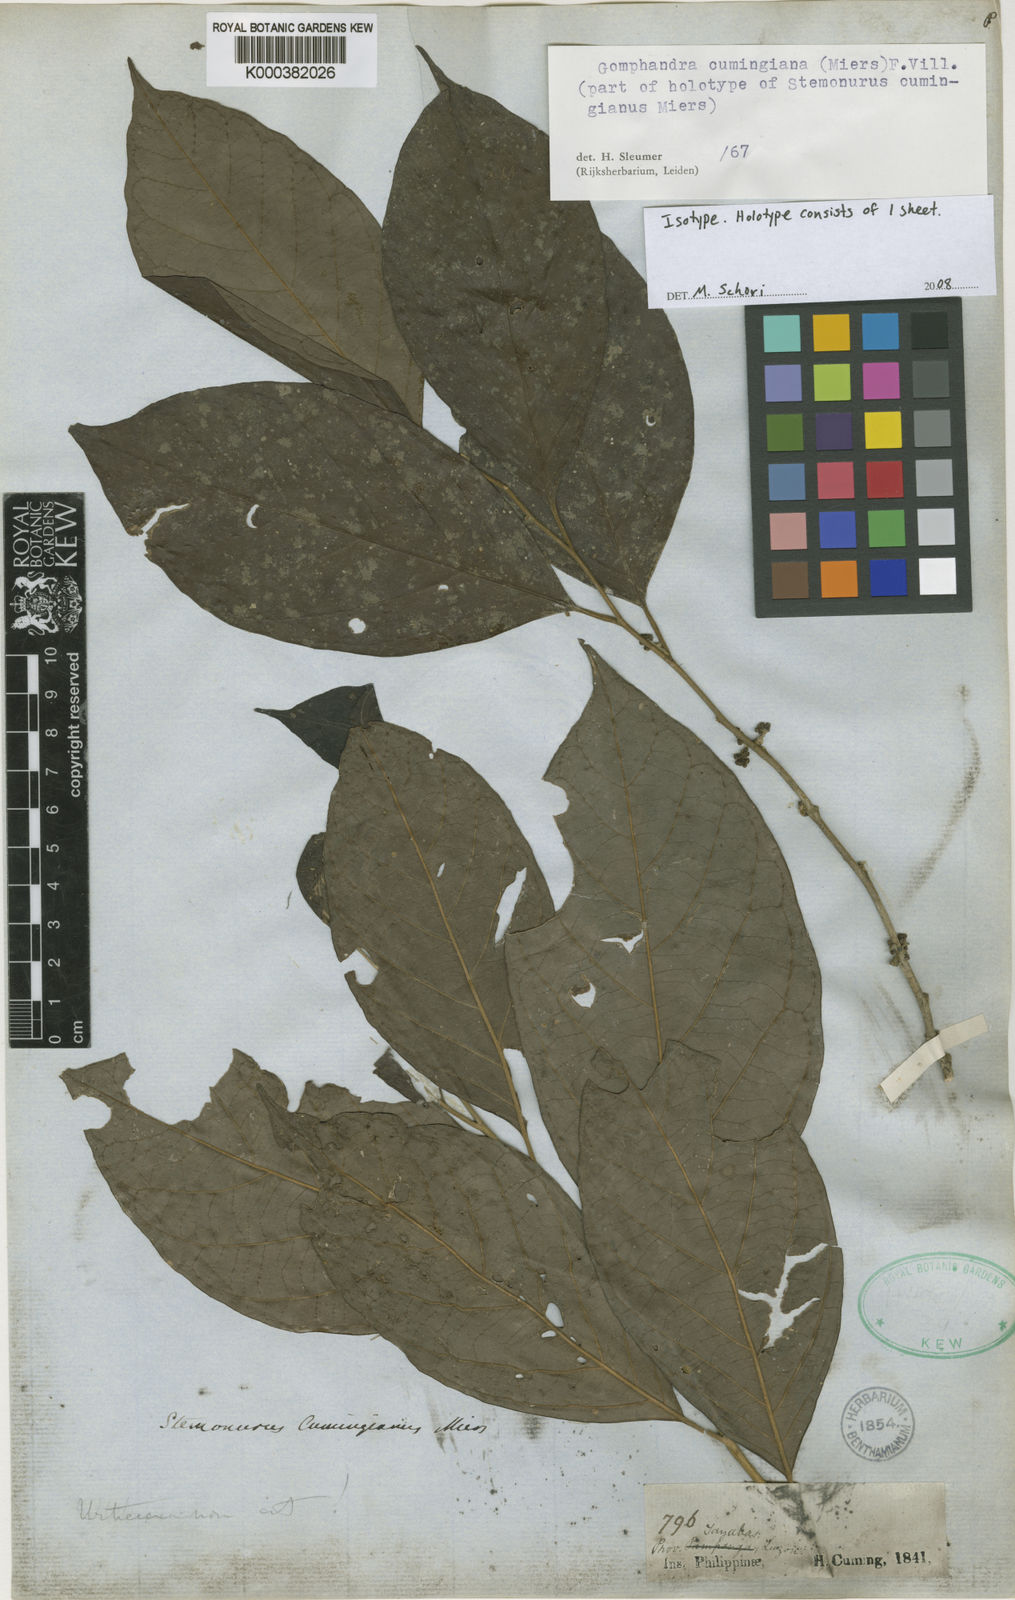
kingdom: Plantae
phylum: Tracheophyta
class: Magnoliopsida
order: Cardiopteridales
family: Stemonuraceae
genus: Gomphandra
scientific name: Gomphandra cumingiana
